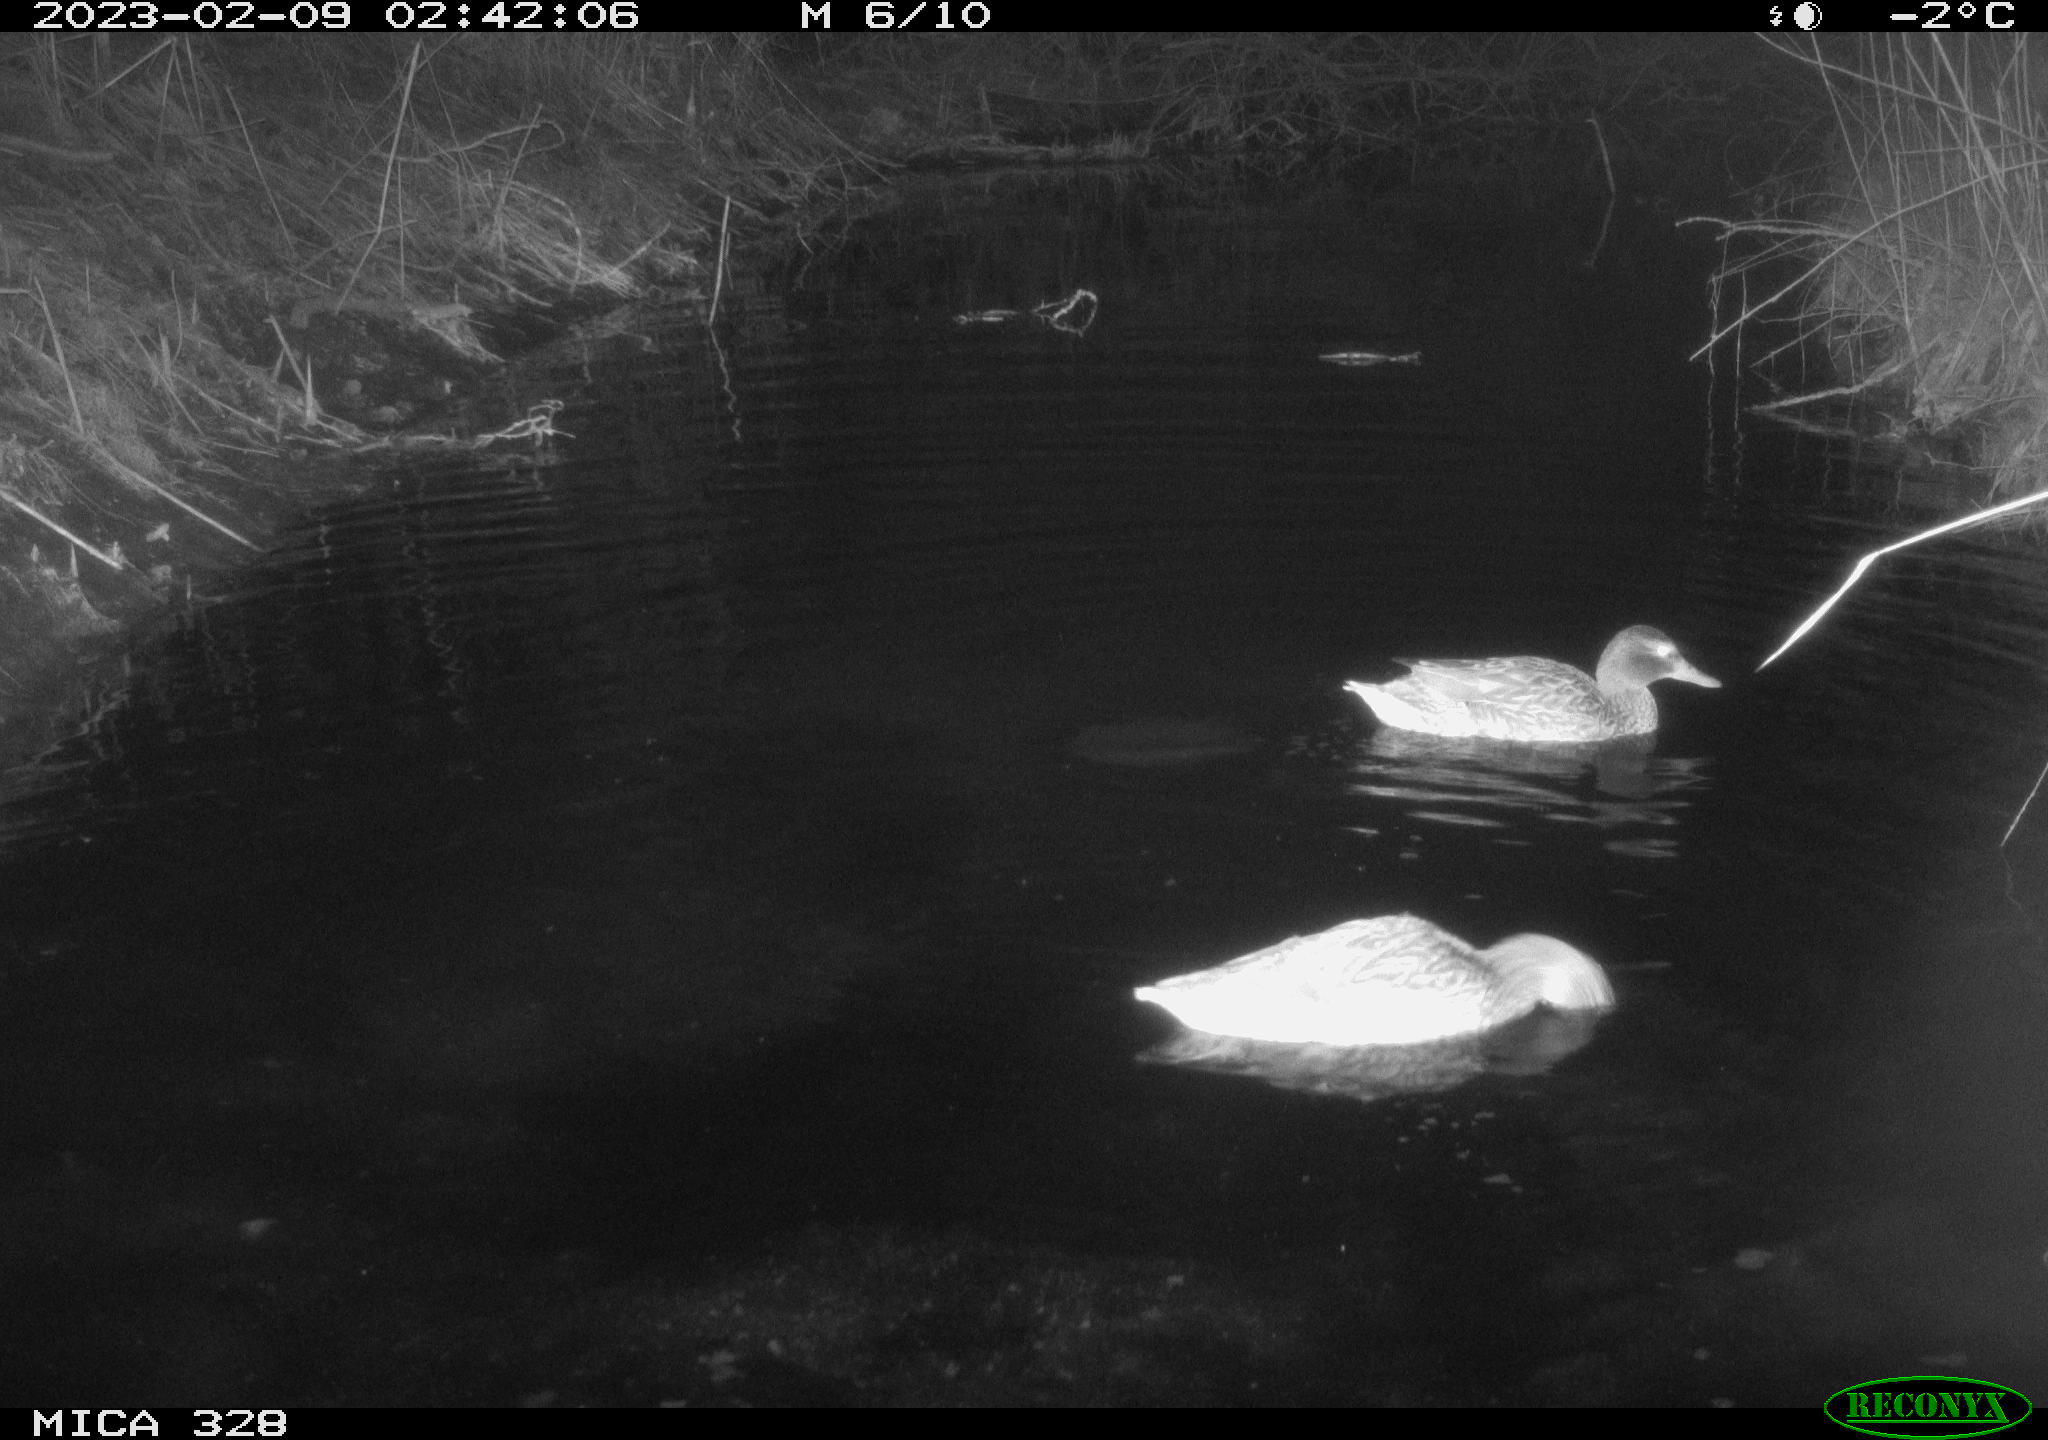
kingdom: Animalia
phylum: Chordata
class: Aves
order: Anseriformes
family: Anatidae
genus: Anas
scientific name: Anas
